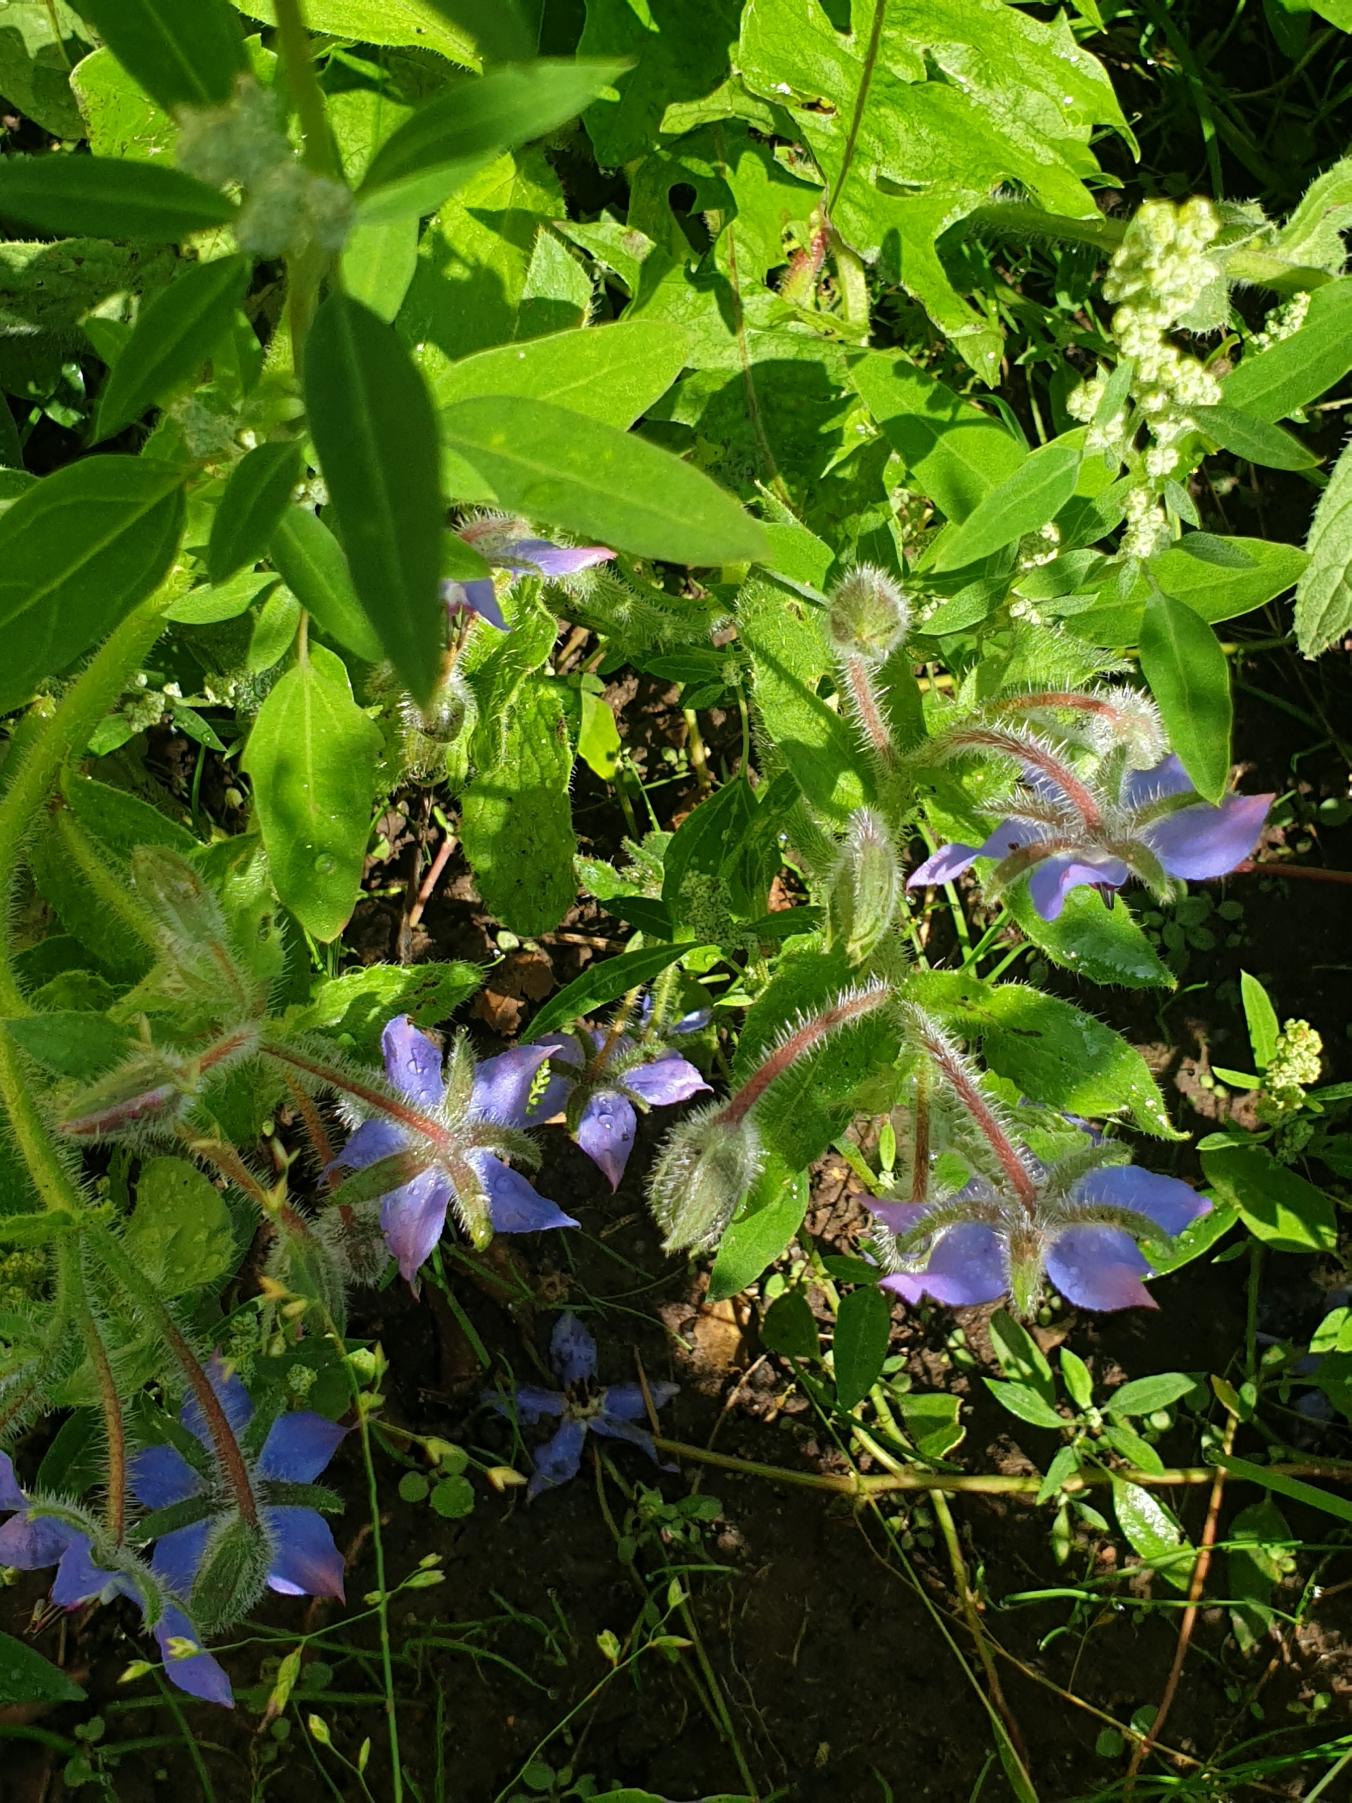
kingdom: Plantae
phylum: Tracheophyta
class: Magnoliopsida
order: Boraginales
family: Boraginaceae
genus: Borago
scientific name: Borago officinalis
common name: Hjulkrone
